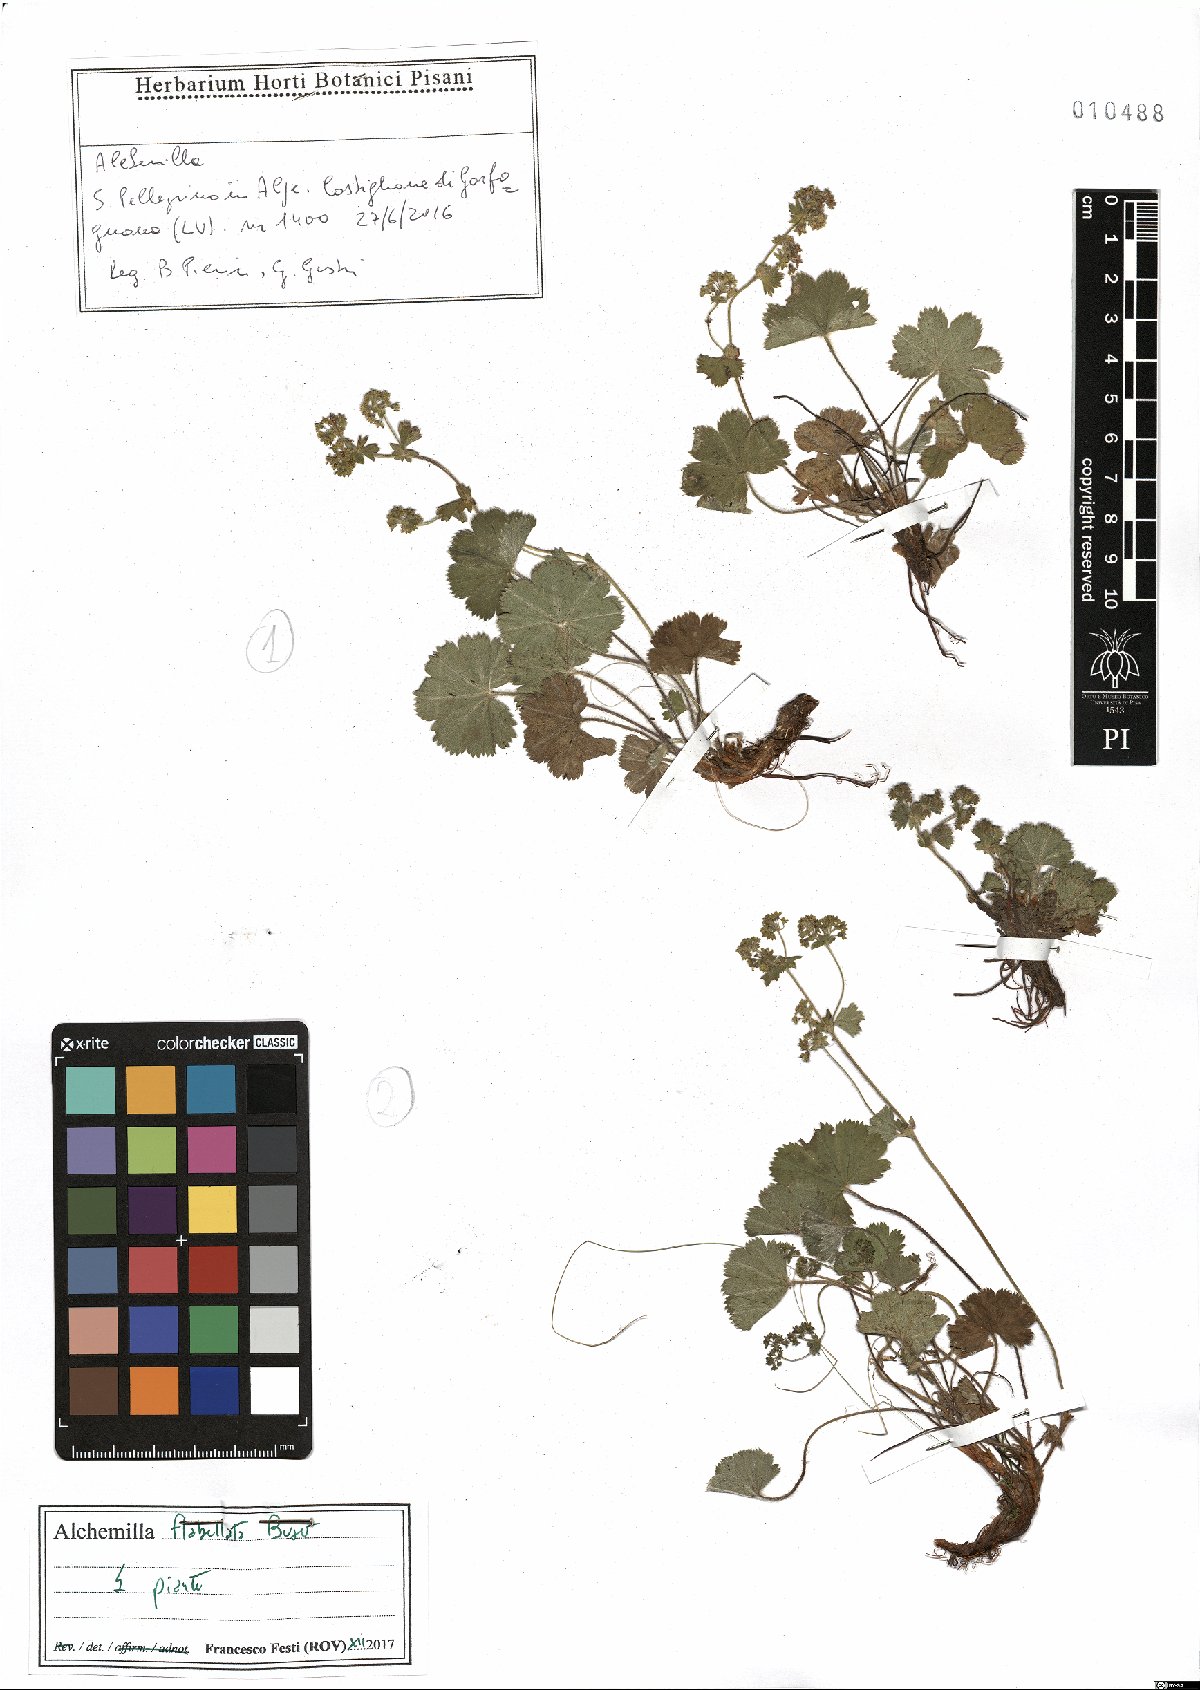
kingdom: Plantae
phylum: Tracheophyta
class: Magnoliopsida
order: Rosales
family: Rosaceae
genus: Alchemilla
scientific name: Alchemilla flabellata
